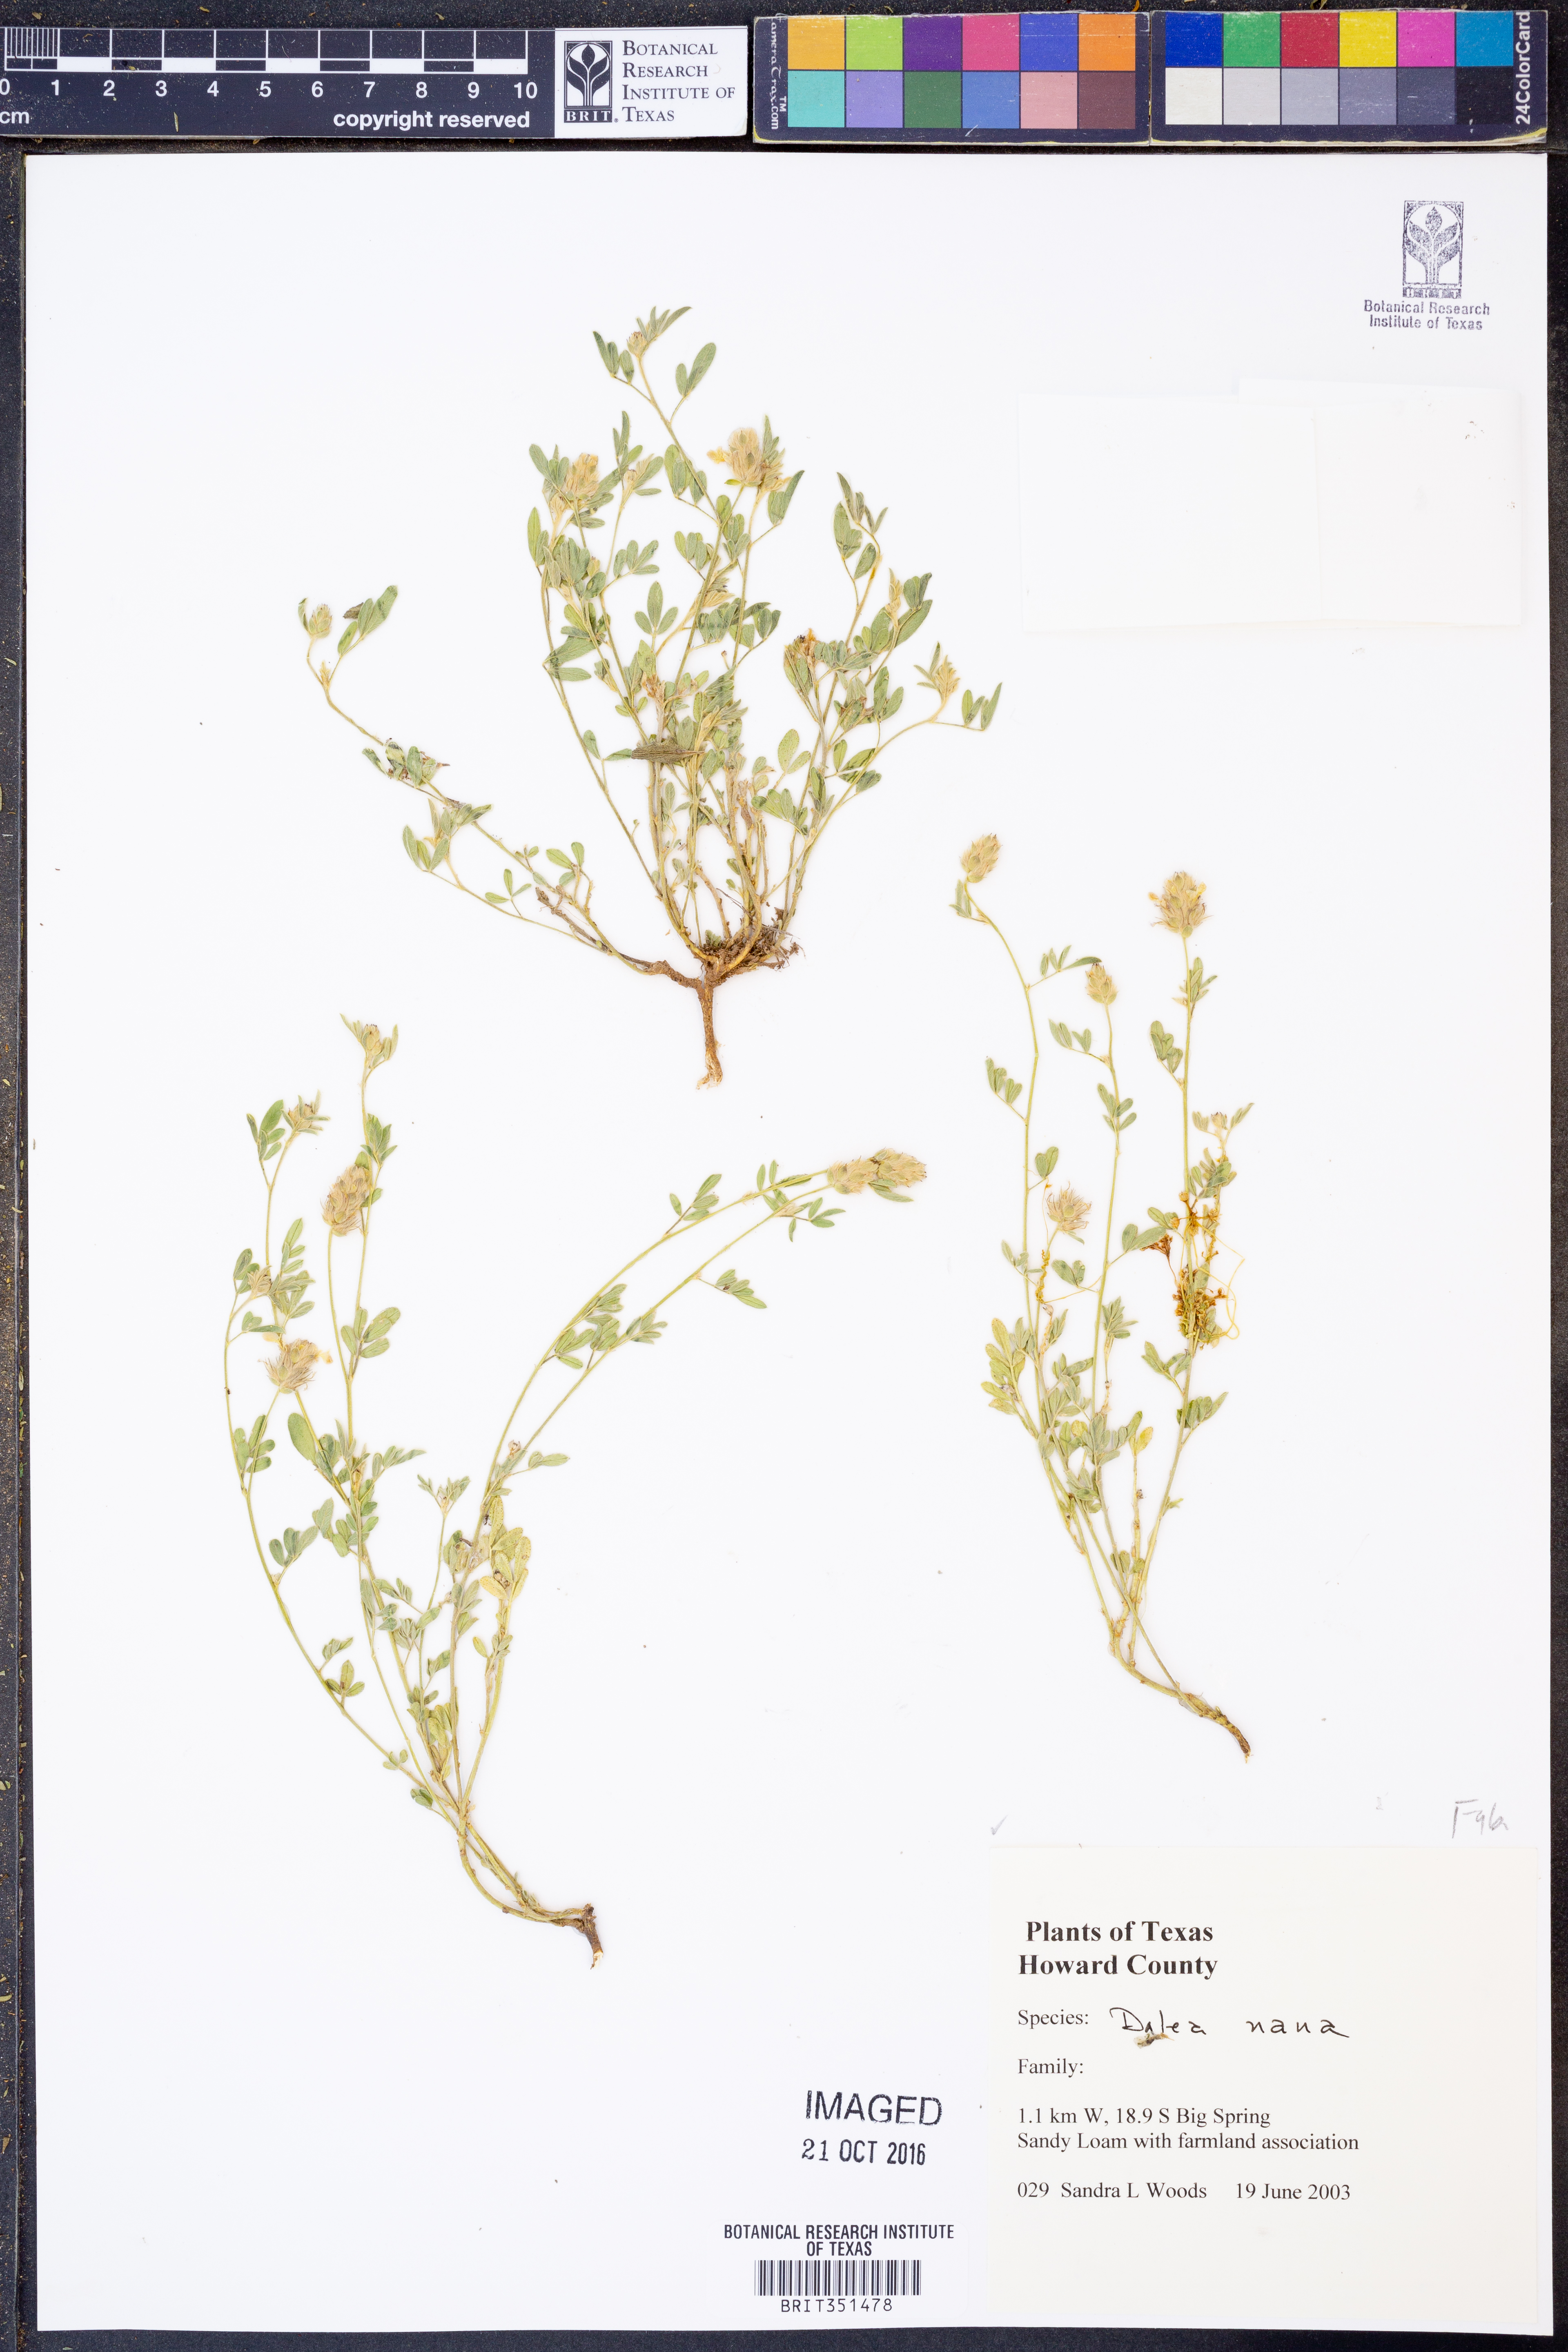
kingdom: Plantae
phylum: Tracheophyta
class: Magnoliopsida
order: Fabales
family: Fabaceae
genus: Dalea
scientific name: Dalea nana
